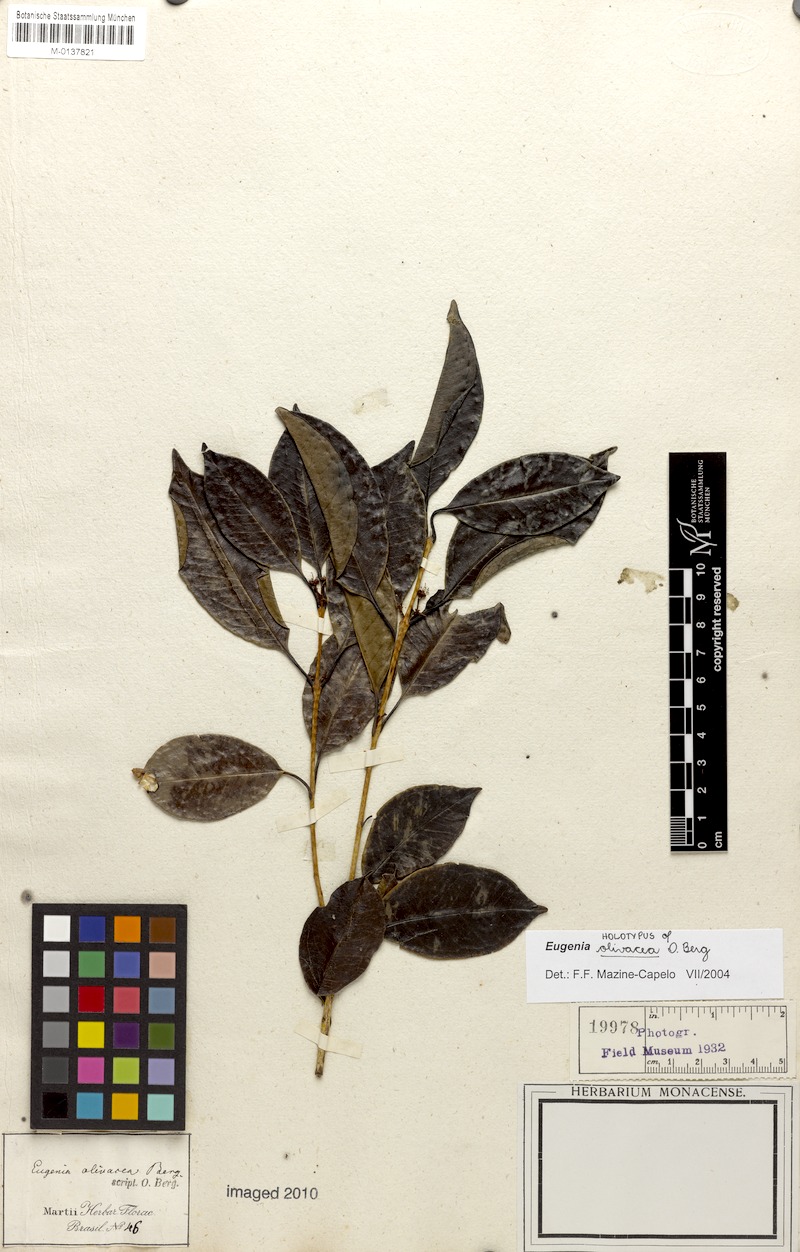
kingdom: Plantae
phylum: Tracheophyta
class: Magnoliopsida
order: Myrtales
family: Myrtaceae
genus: Eugenia
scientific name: Eugenia pruniformis
